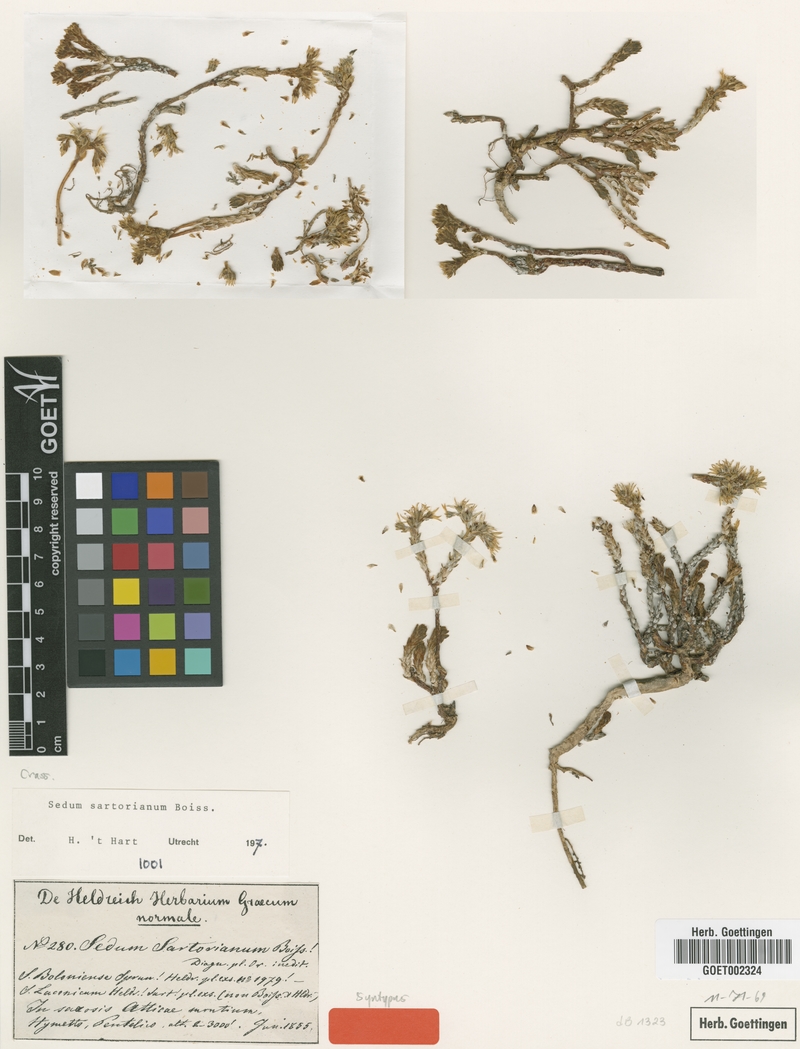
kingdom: Plantae
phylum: Tracheophyta
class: Magnoliopsida
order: Saxifragales
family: Crassulaceae
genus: Sedum
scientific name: Sedum urvillei
